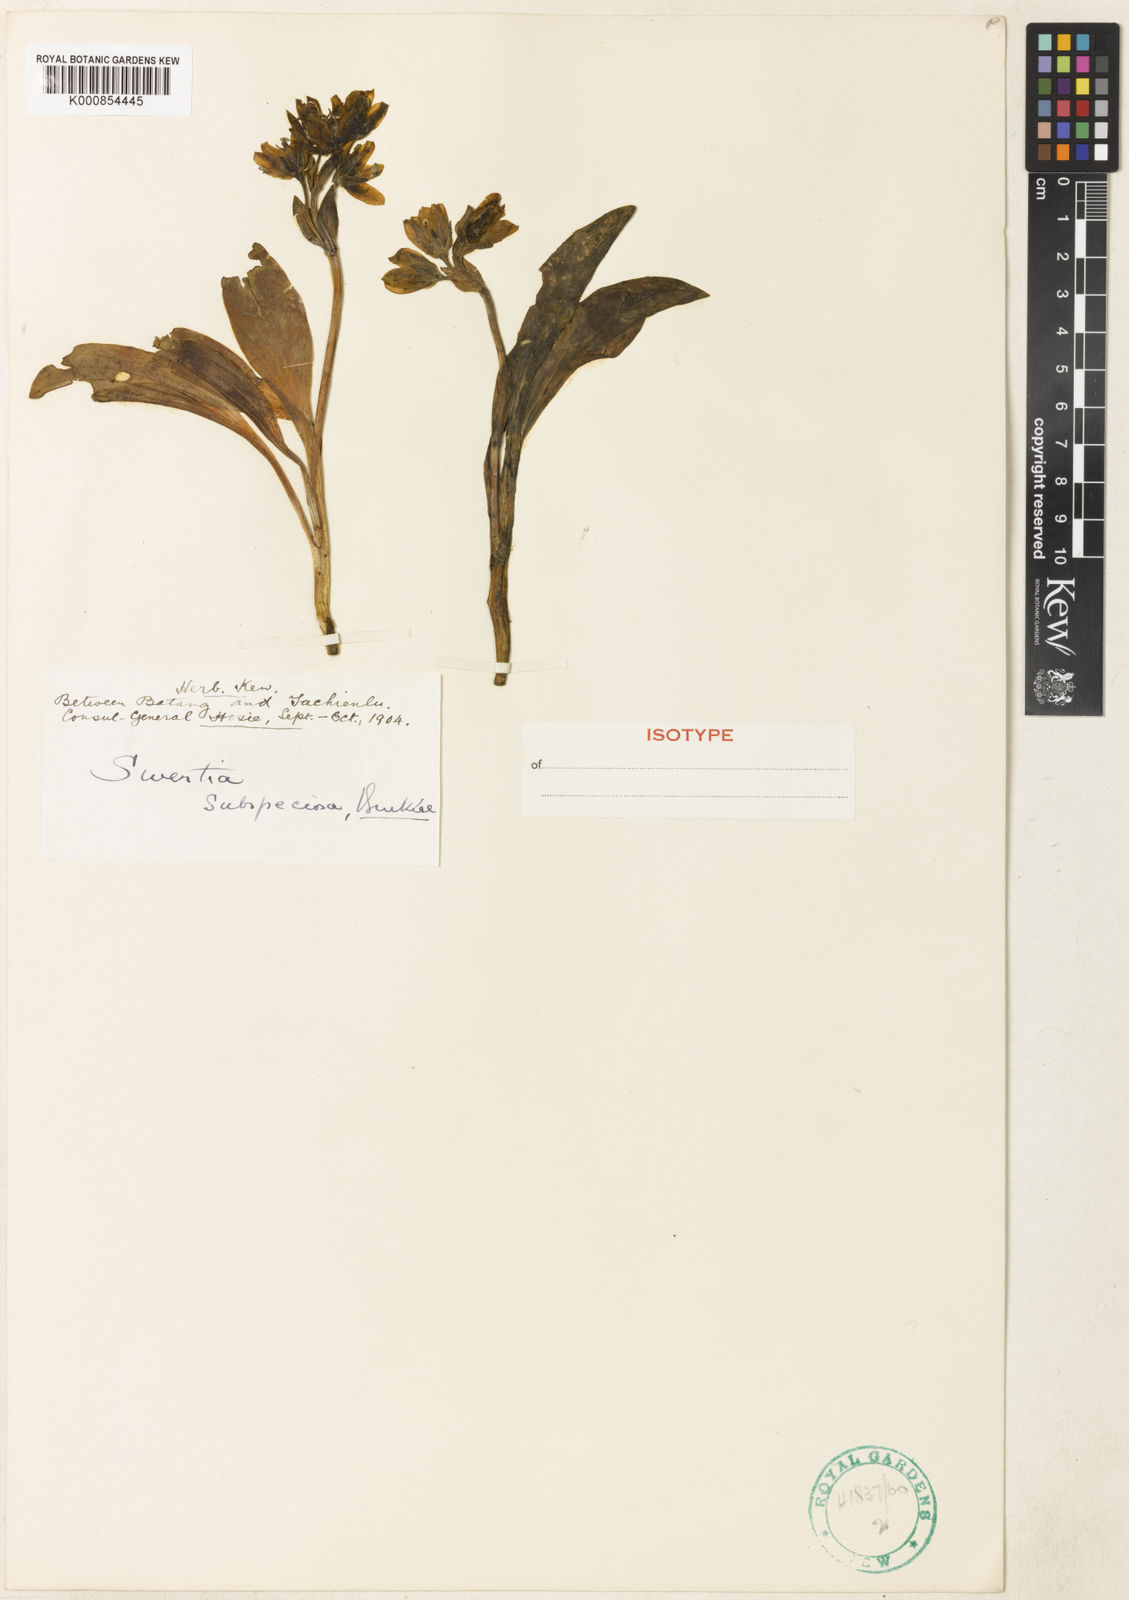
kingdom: Plantae
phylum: Tracheophyta
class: Magnoliopsida
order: Gentianales
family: Gentianaceae
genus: Swertia
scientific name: Swertia souliei
